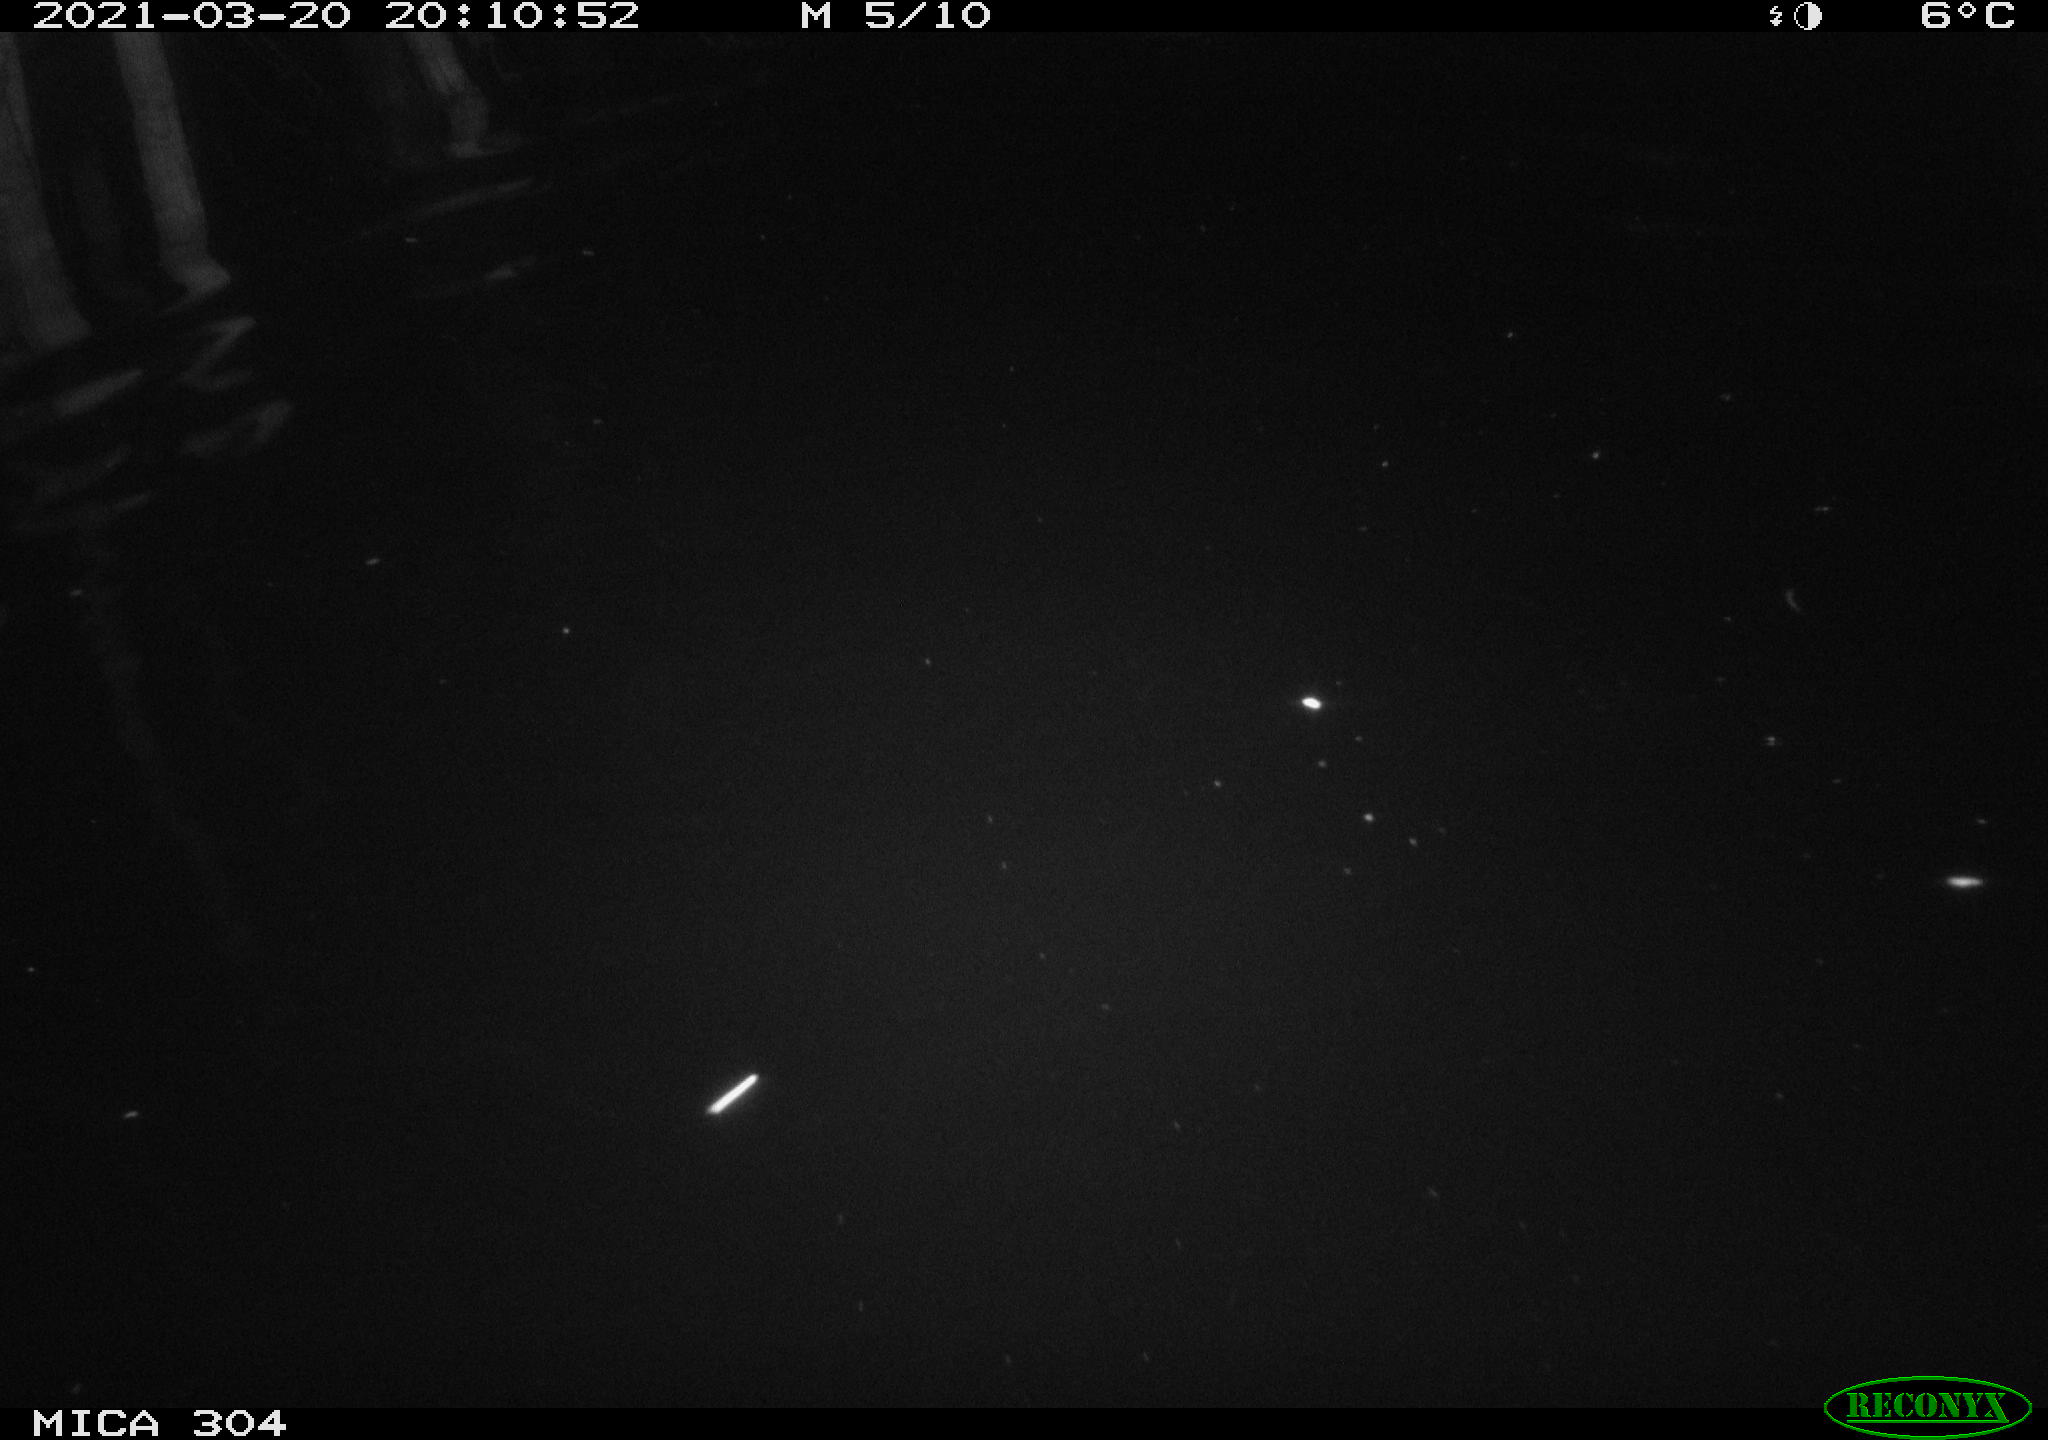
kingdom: Animalia
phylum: Chordata
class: Aves
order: Anseriformes
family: Anatidae
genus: Anas
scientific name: Anas platyrhynchos
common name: Mallard
